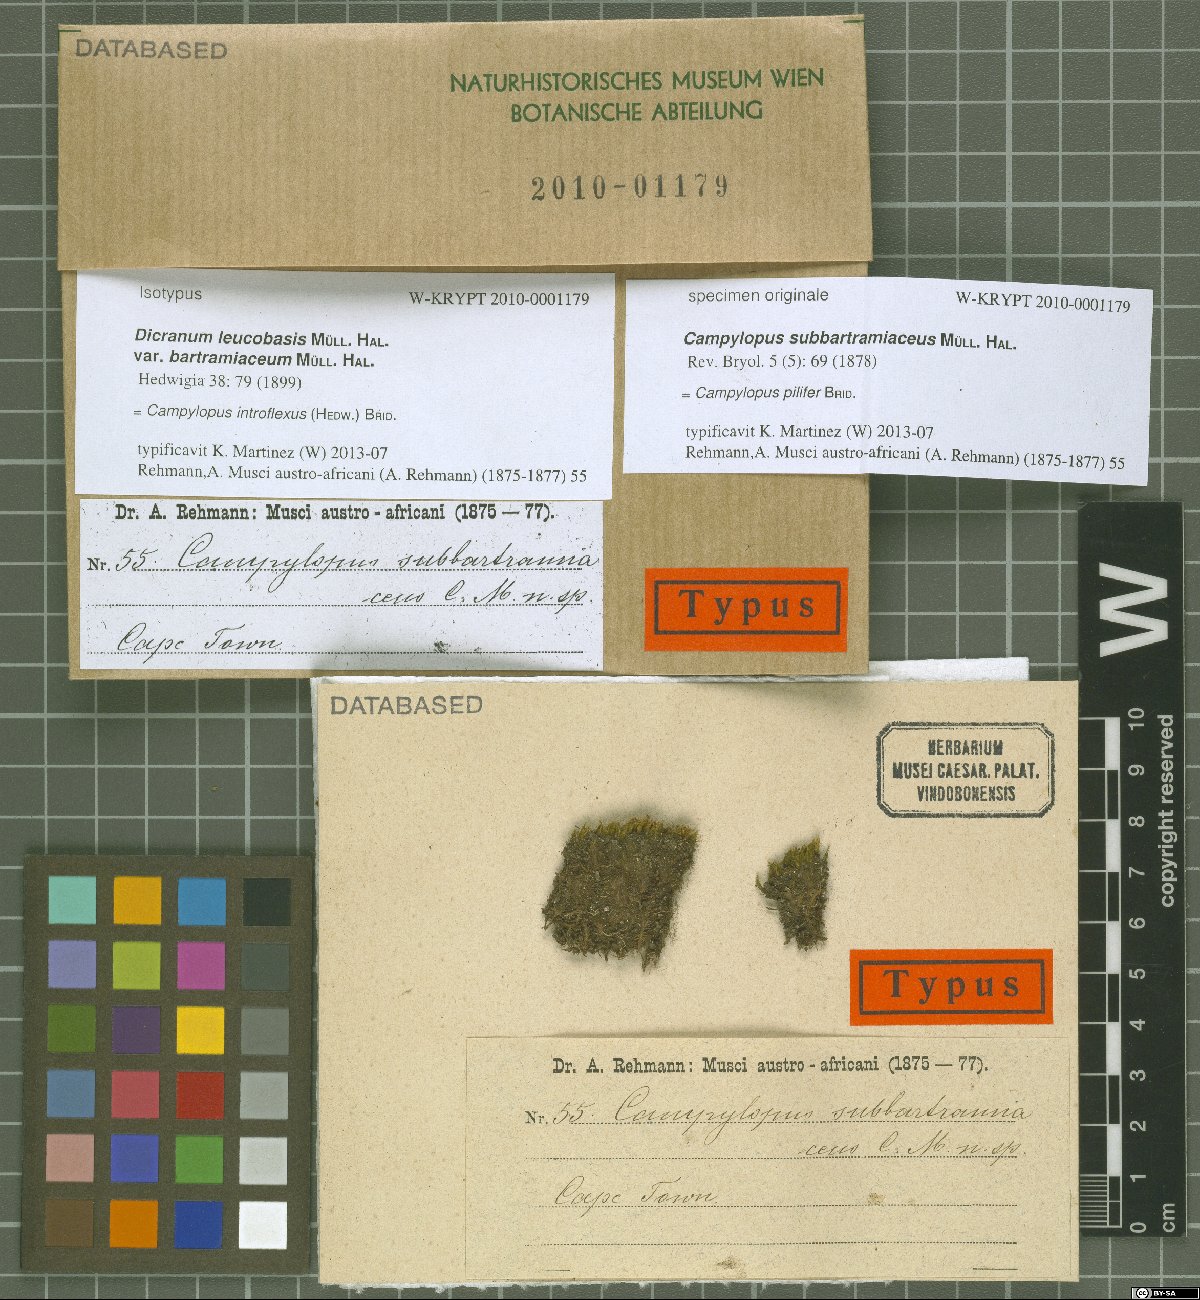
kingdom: Plantae
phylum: Bryophyta
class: Bryopsida
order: Dicranales
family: Leucobryaceae
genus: Campylopus
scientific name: Campylopus pilifer
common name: Campylopus moss
